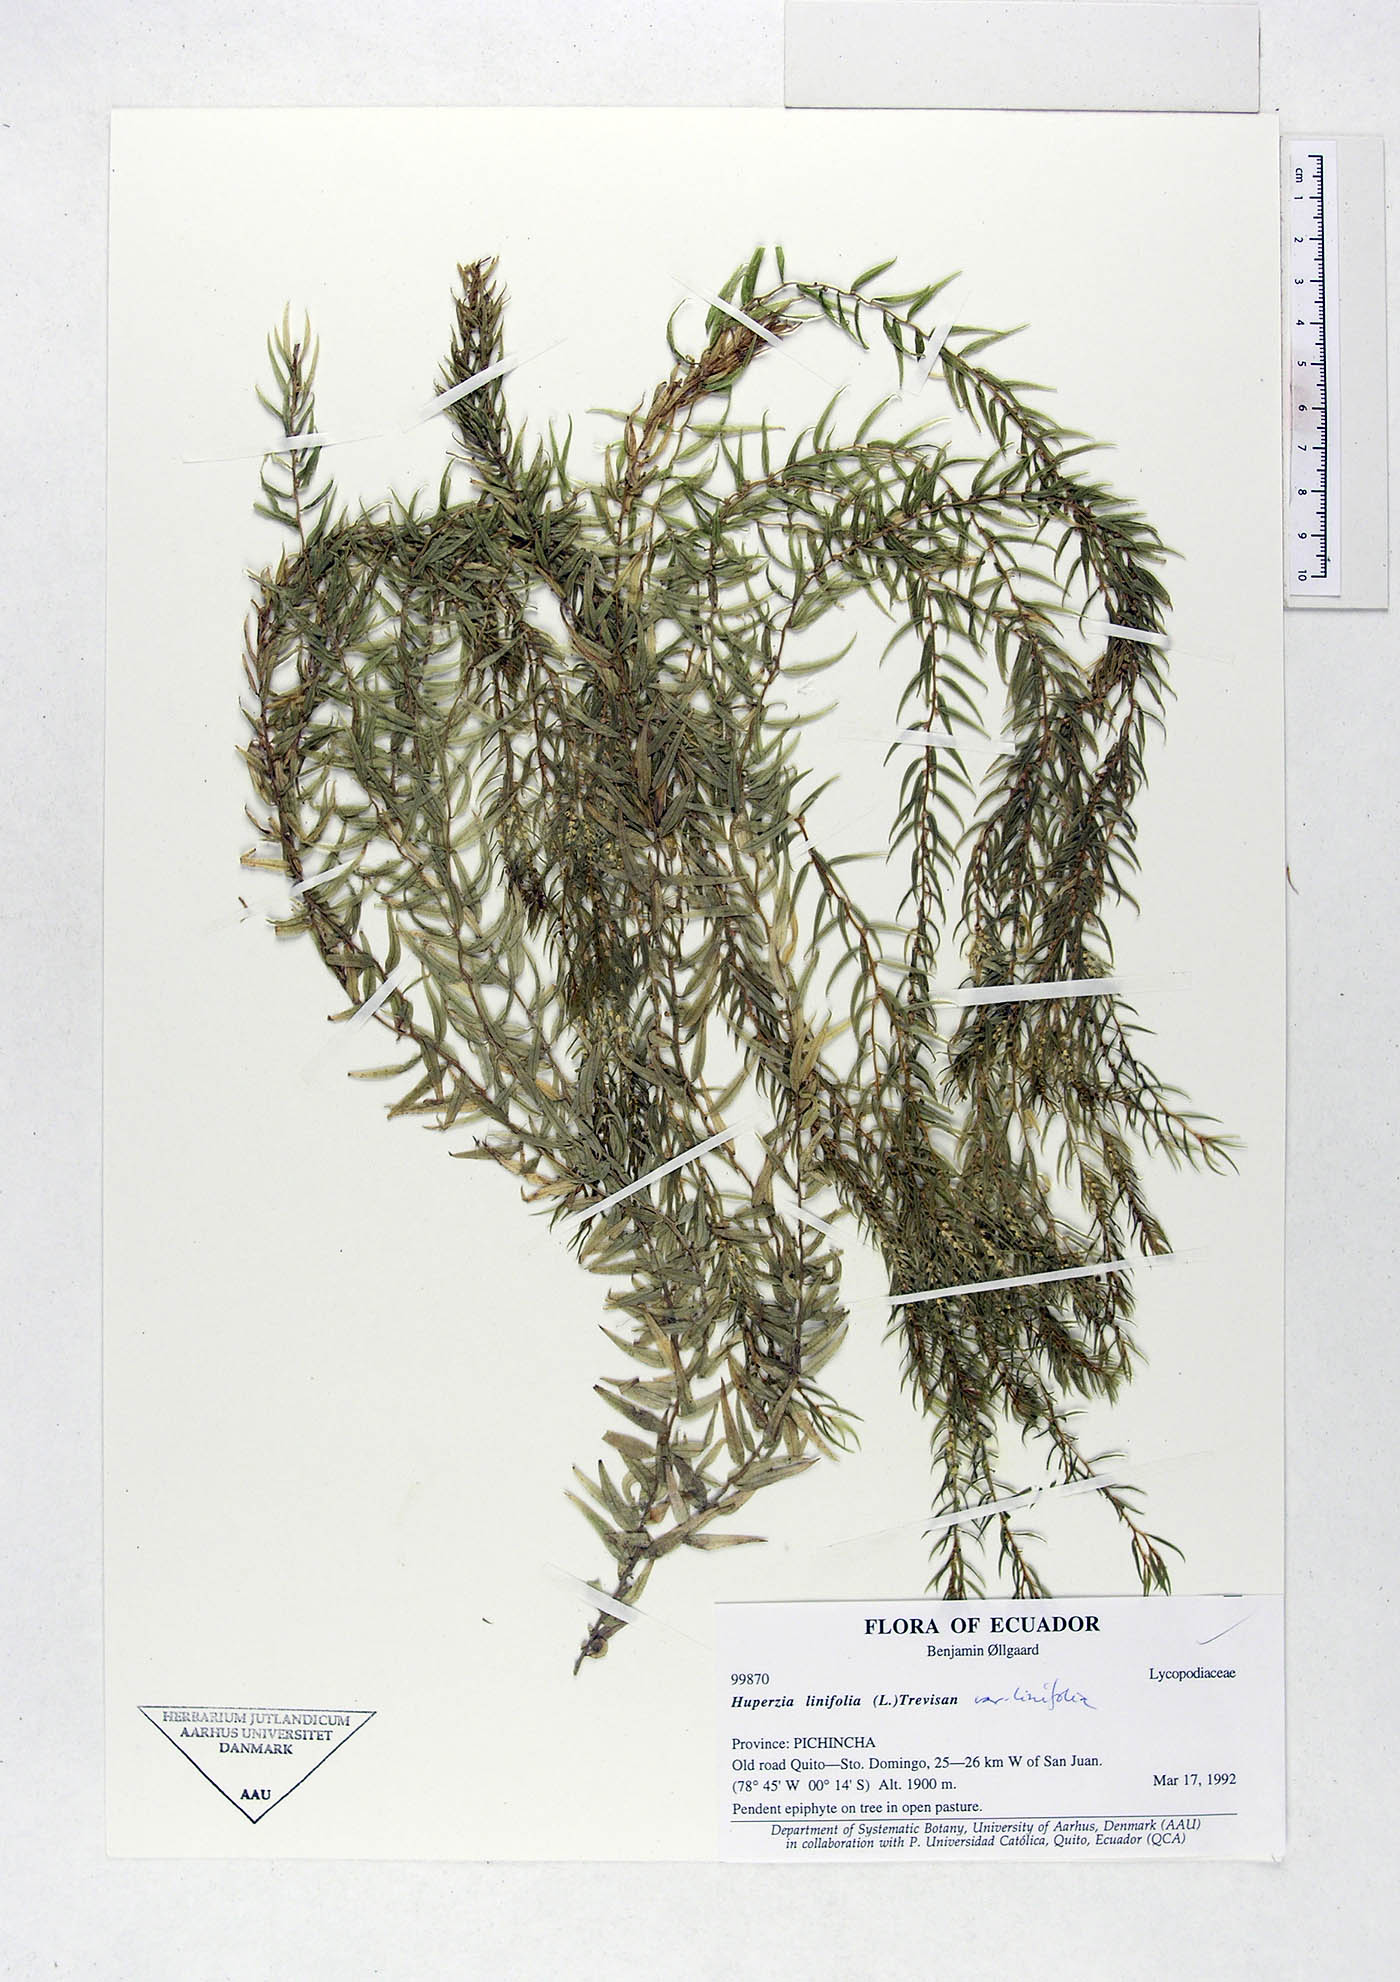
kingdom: Plantae
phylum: Tracheophyta
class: Lycopodiopsida
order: Lycopodiales
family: Lycopodiaceae
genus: Phlegmariurus
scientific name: Phlegmariurus linifolius
